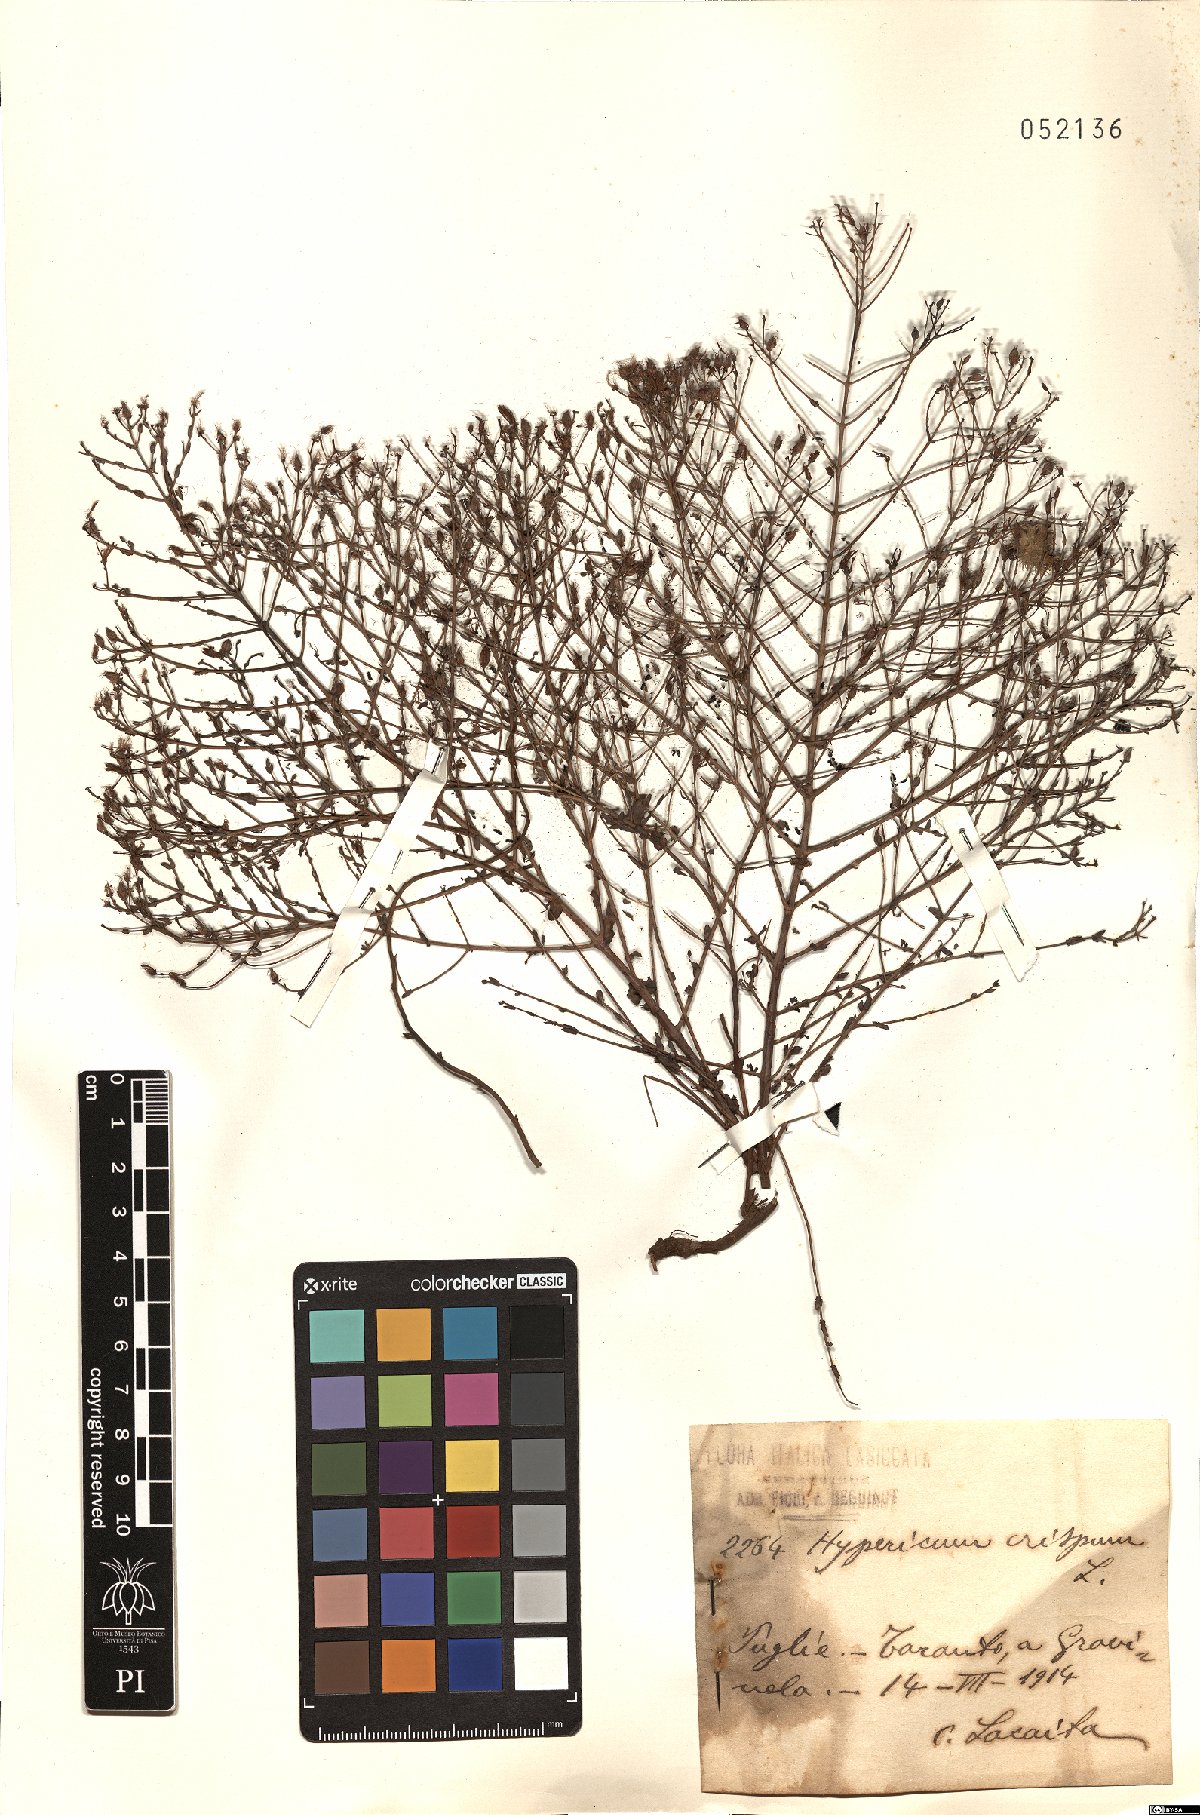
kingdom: Plantae
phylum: Tracheophyta
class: Magnoliopsida
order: Malpighiales
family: Hypericaceae
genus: Hypericum
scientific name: Hypericum triquetrifolium
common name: Tangled hypericum
